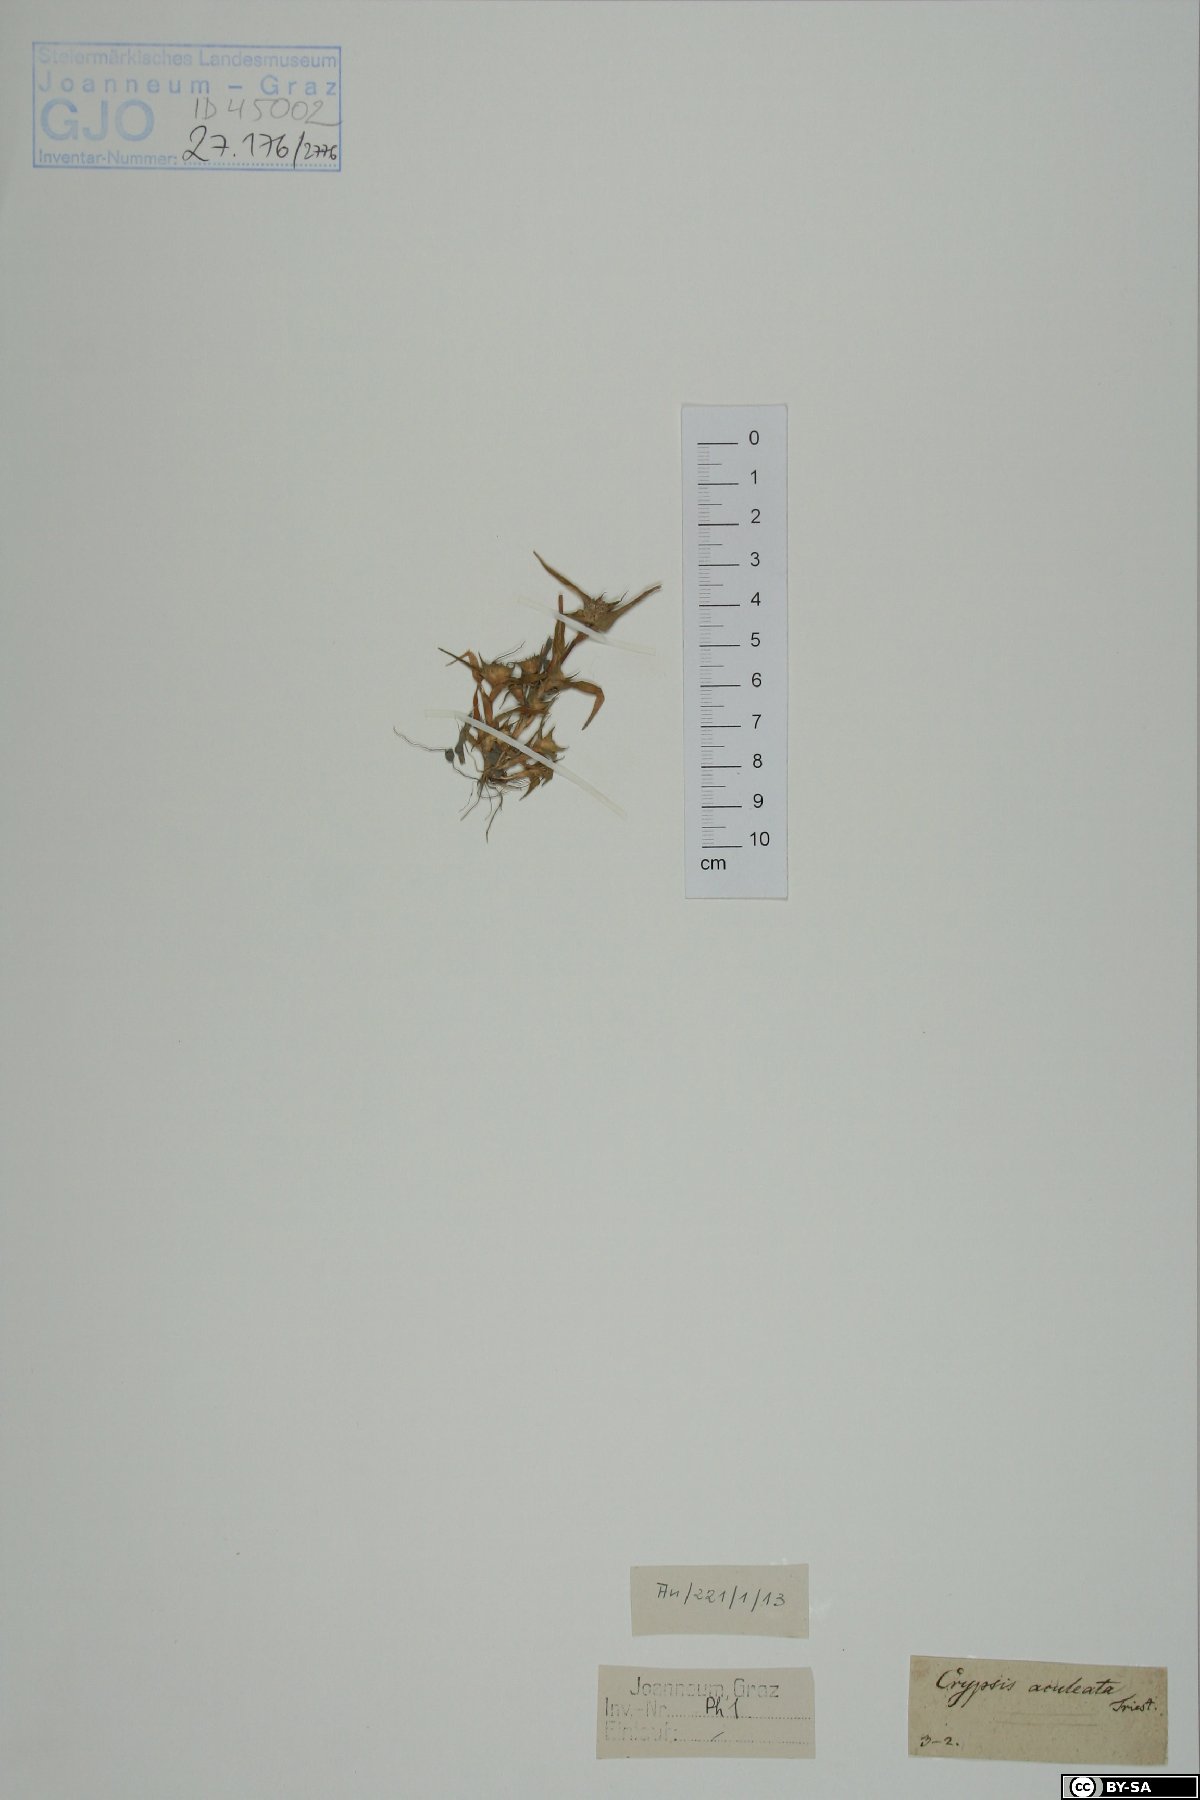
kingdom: Plantae
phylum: Tracheophyta
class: Liliopsida
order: Poales
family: Poaceae
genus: Sporobolus
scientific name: Sporobolus aculeatus
